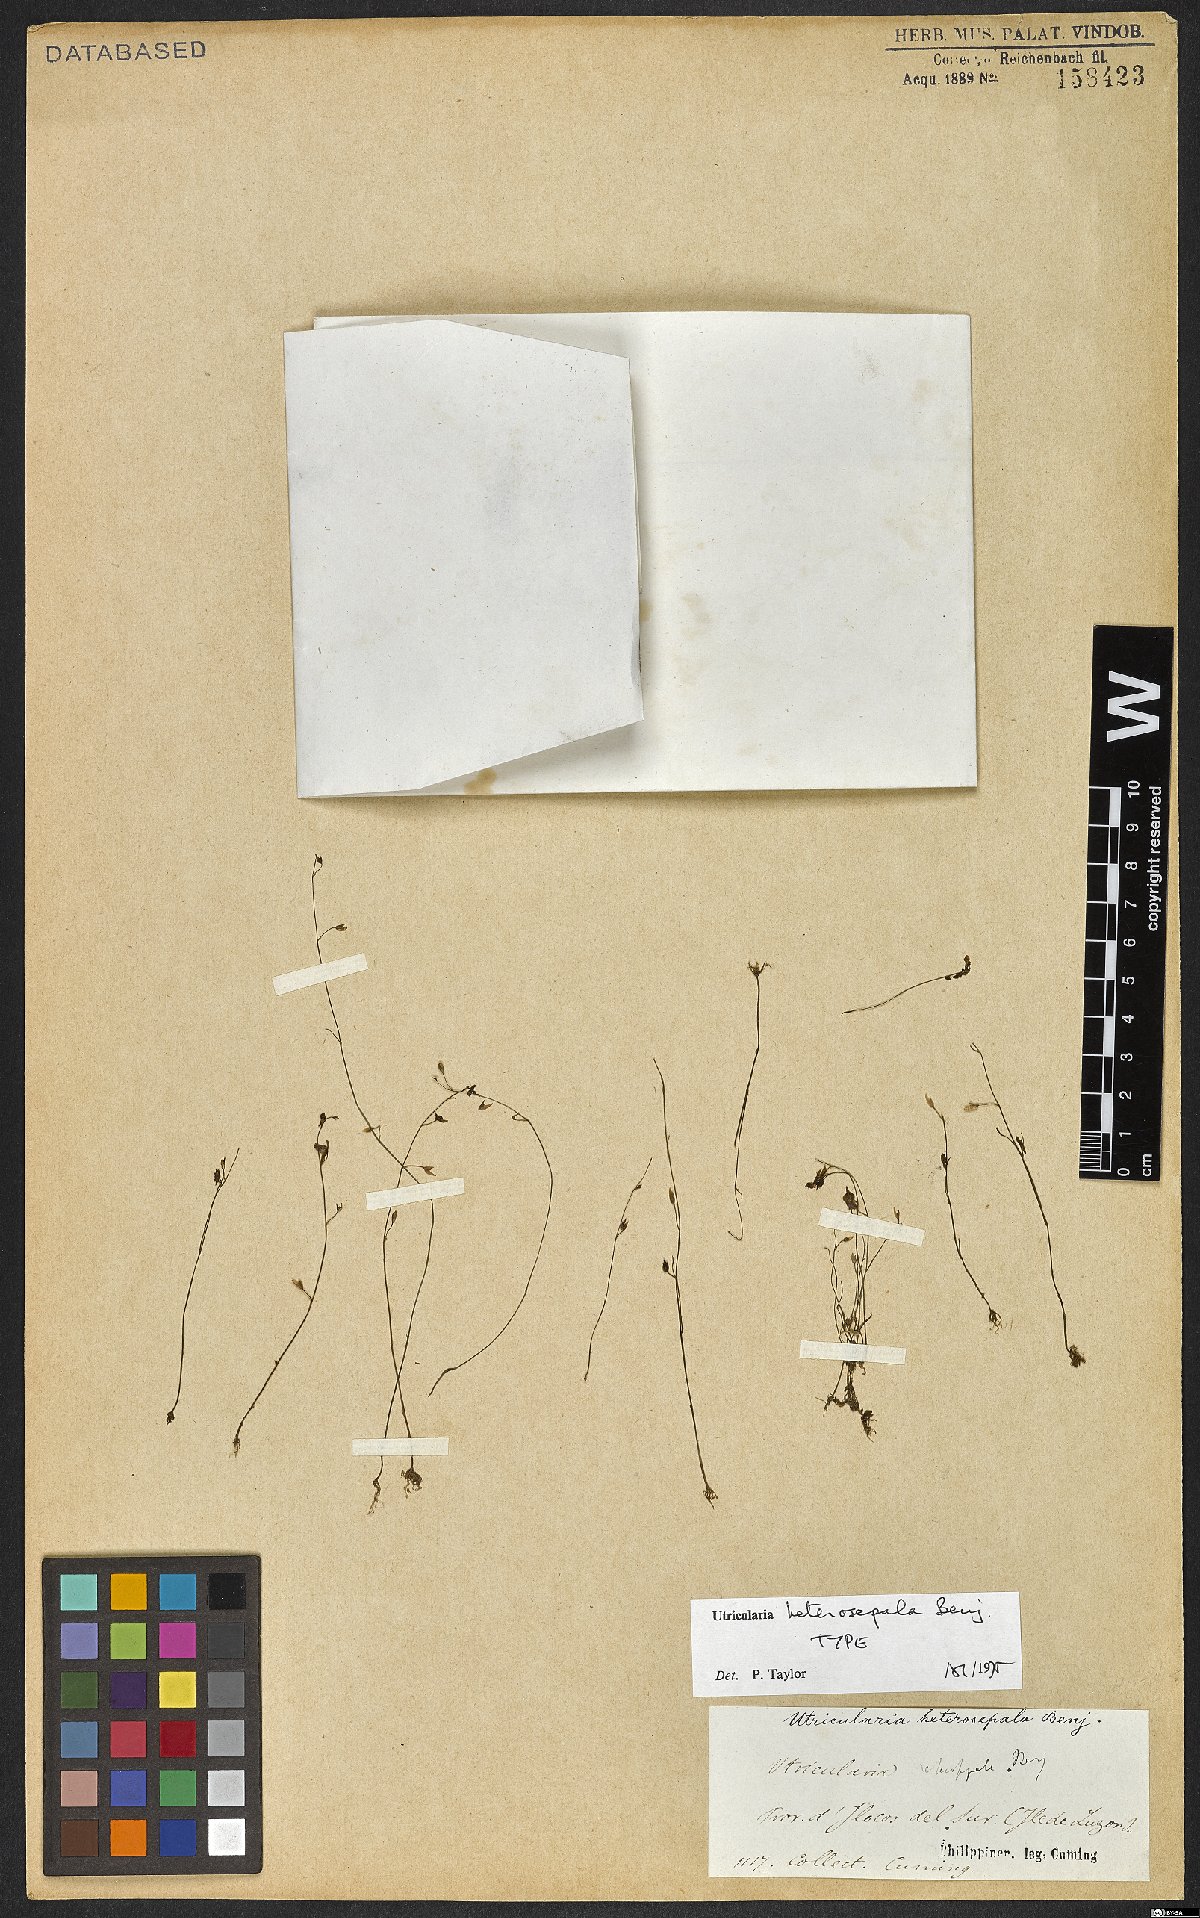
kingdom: Plantae
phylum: Tracheophyta
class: Magnoliopsida
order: Lamiales
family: Lentibulariaceae
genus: Utricularia
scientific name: Utricularia heterosepala
